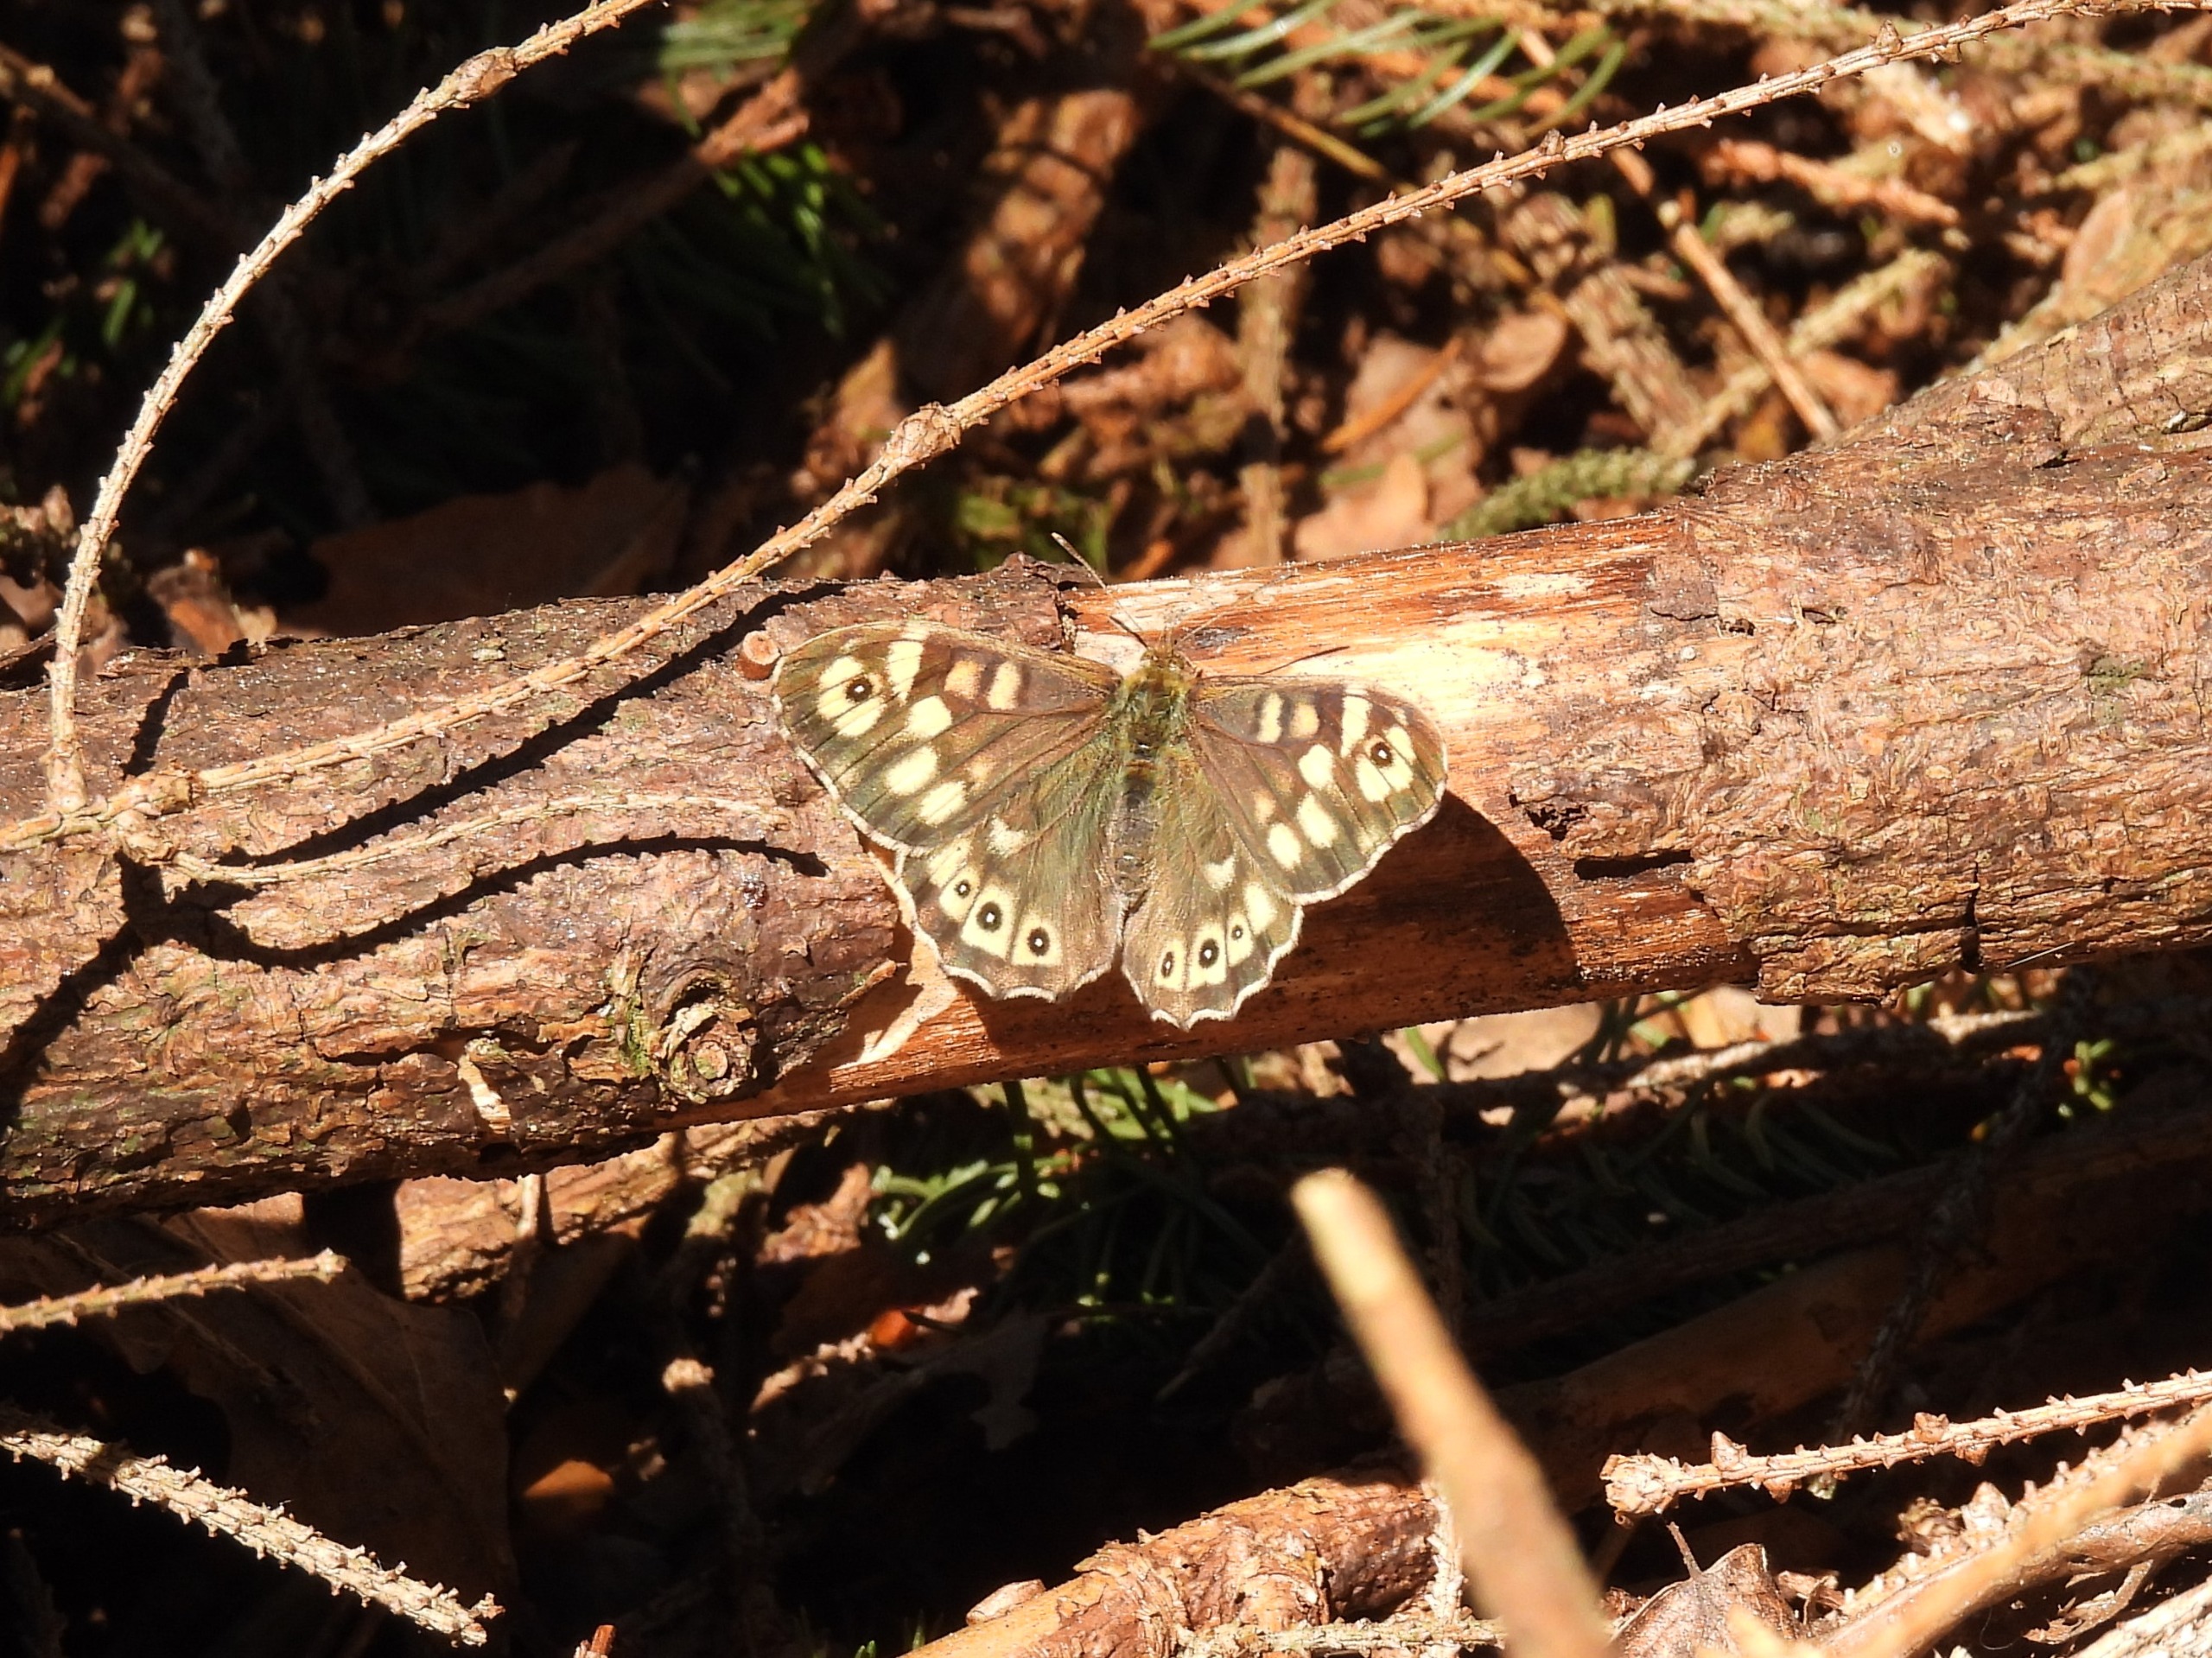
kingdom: Animalia
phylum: Arthropoda
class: Insecta
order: Lepidoptera
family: Nymphalidae
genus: Pararge
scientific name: Pararge aegeria
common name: Skovrandøje
